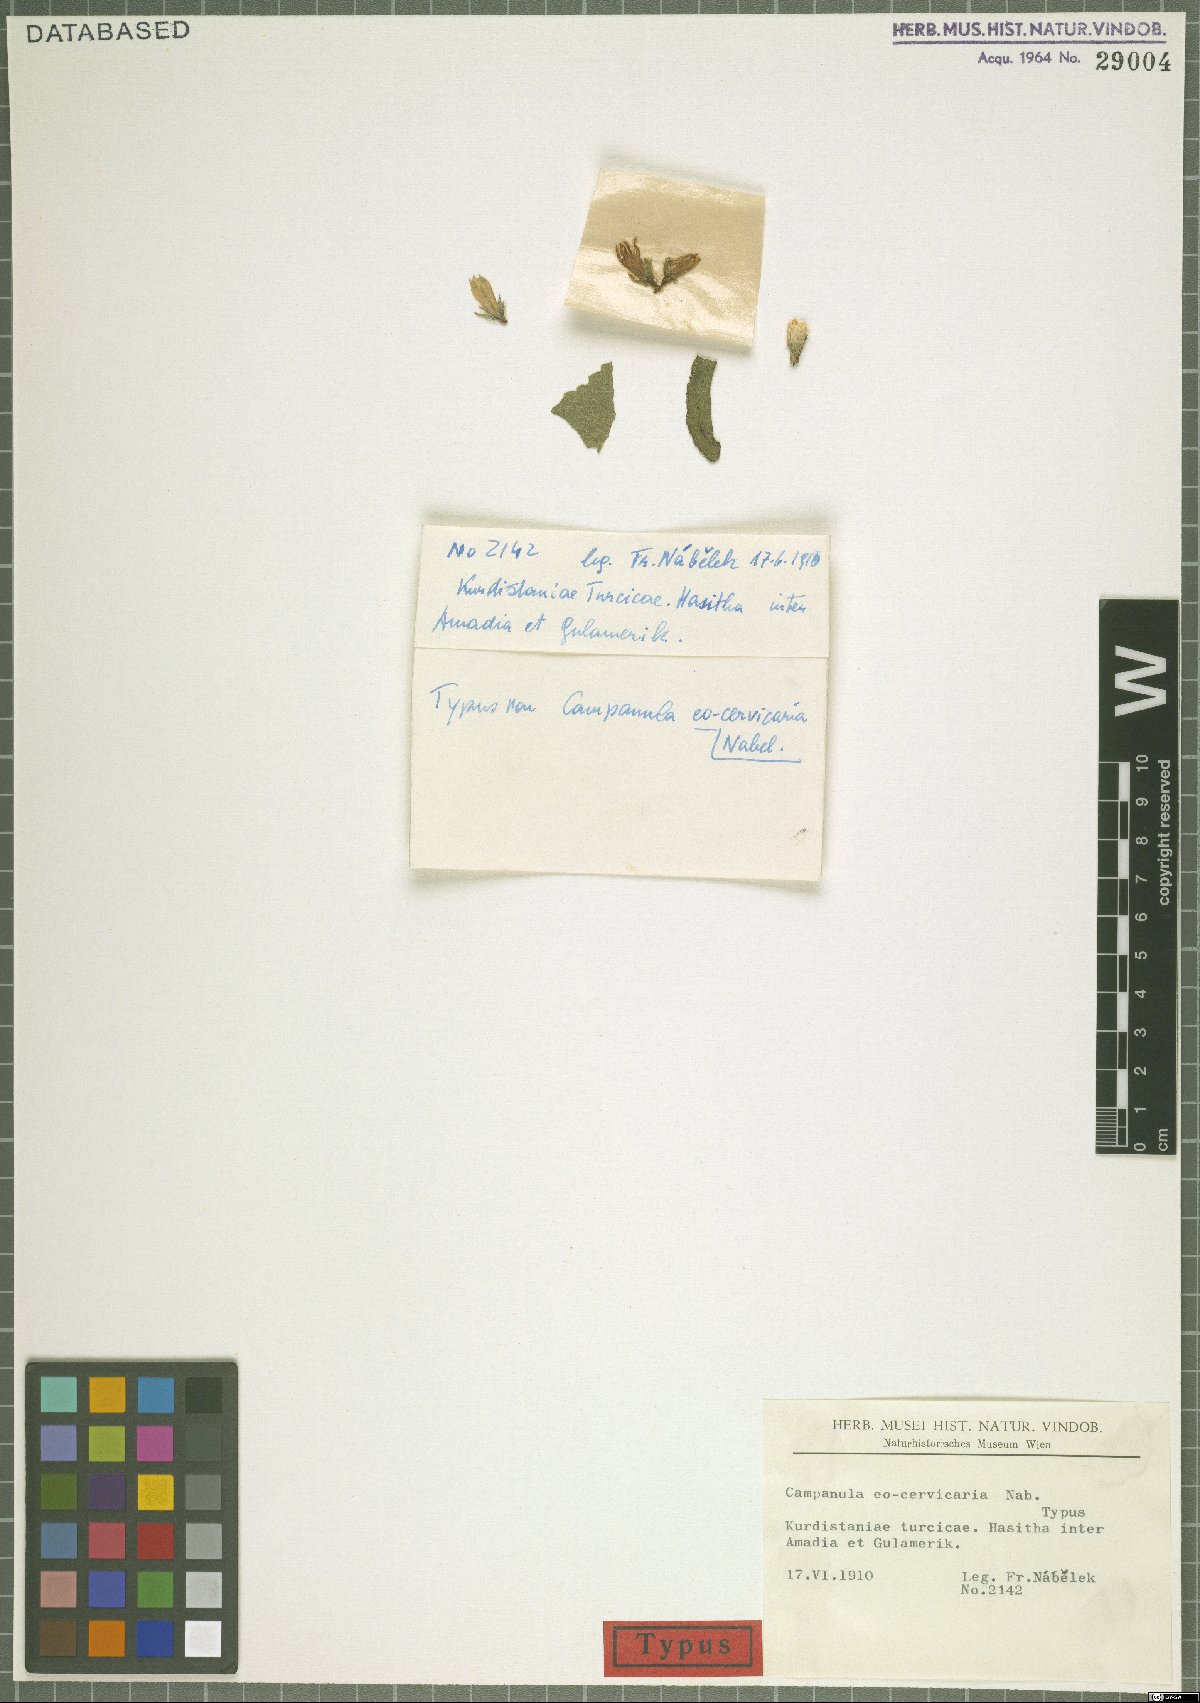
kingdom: Plantae
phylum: Tracheophyta
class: Magnoliopsida
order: Asterales
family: Campanulaceae
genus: Campanula
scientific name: Campanula glomerata
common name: Clustered bellflower
